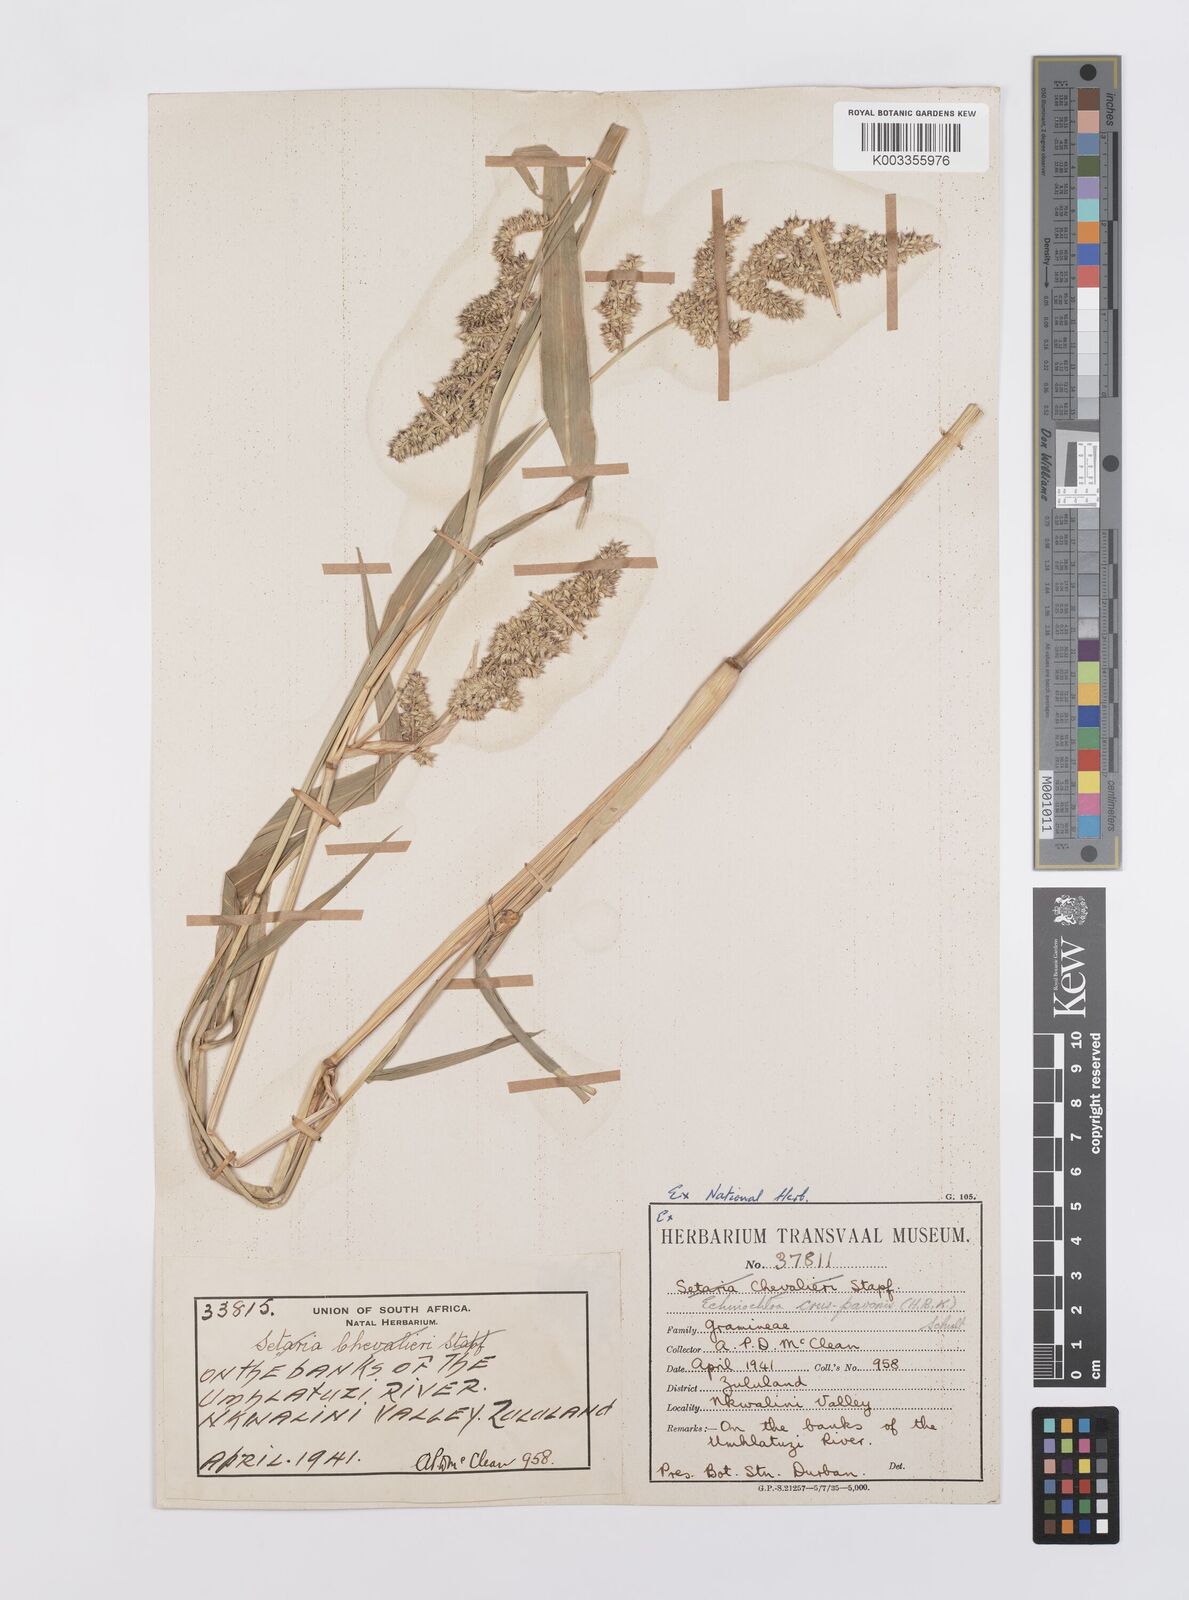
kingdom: Plantae
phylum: Tracheophyta
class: Liliopsida
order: Poales
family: Poaceae
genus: Echinochloa
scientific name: Echinochloa crus-pavonis
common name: Gulf cockspur grass
